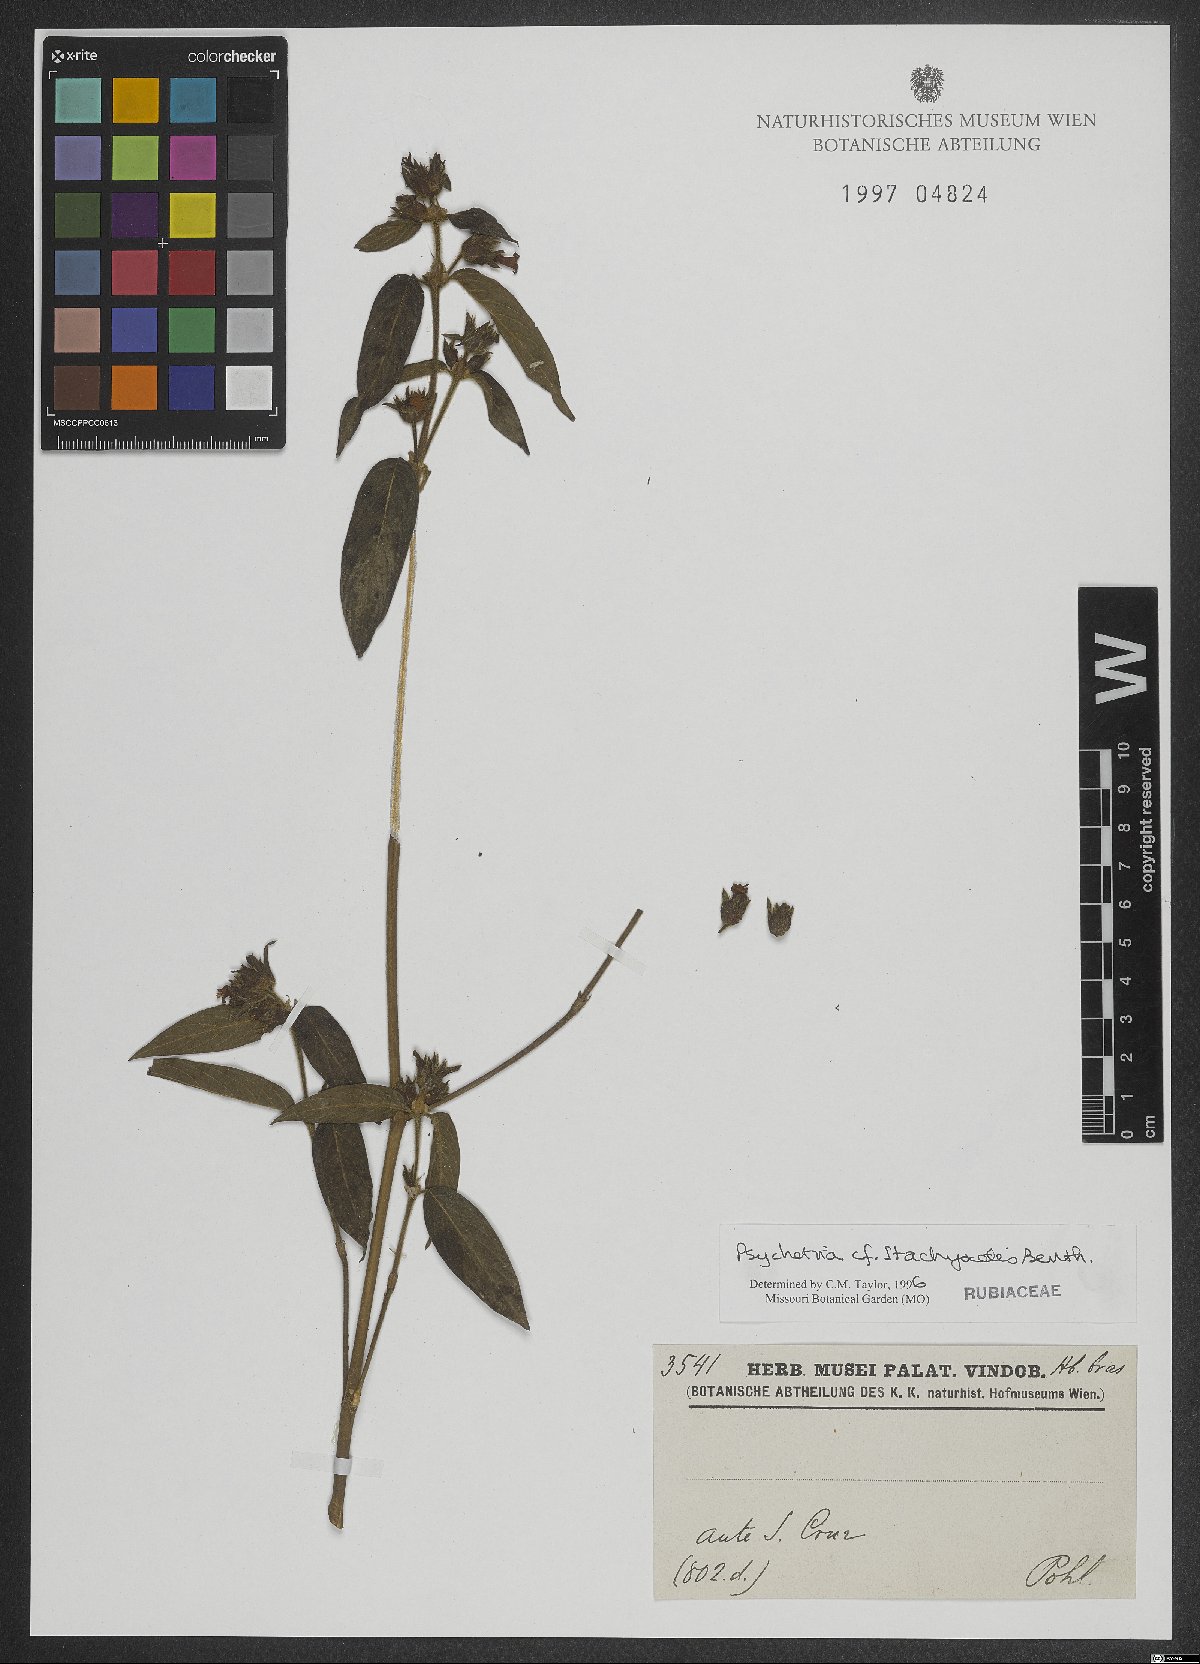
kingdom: Plantae
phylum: Tracheophyta
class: Magnoliopsida
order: Gentianales
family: Rubiaceae
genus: Psychotria
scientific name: Psychotria stachyoides
